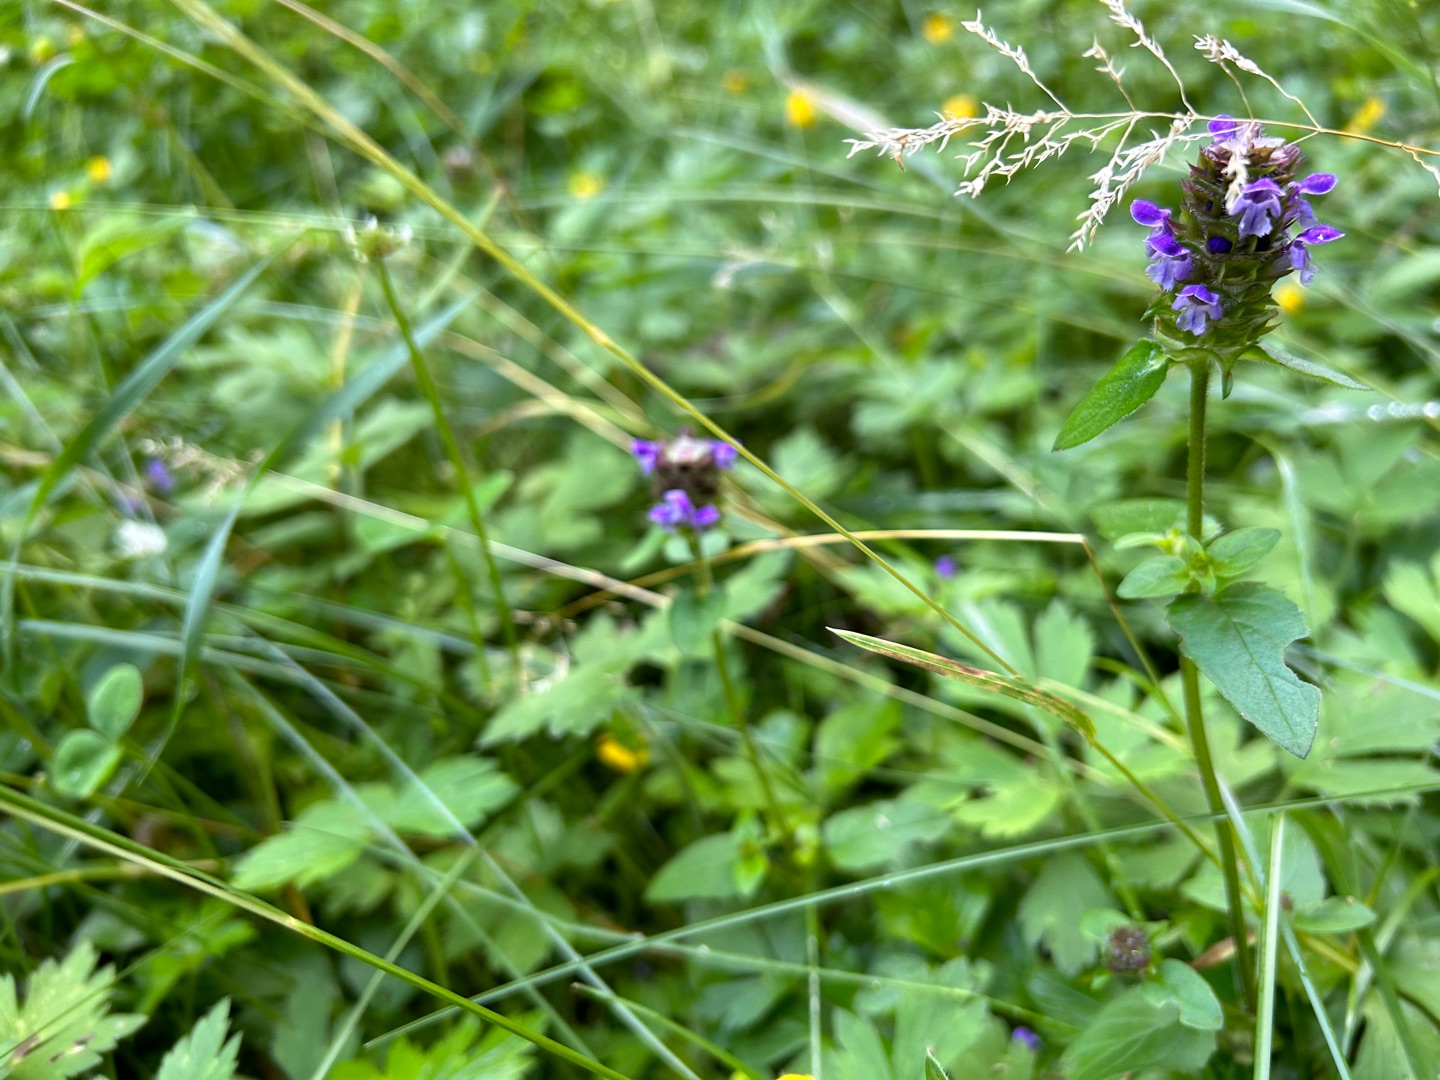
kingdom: Plantae
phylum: Tracheophyta
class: Magnoliopsida
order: Lamiales
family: Lamiaceae
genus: Prunella
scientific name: Prunella vulgaris
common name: Almindelig brunelle
